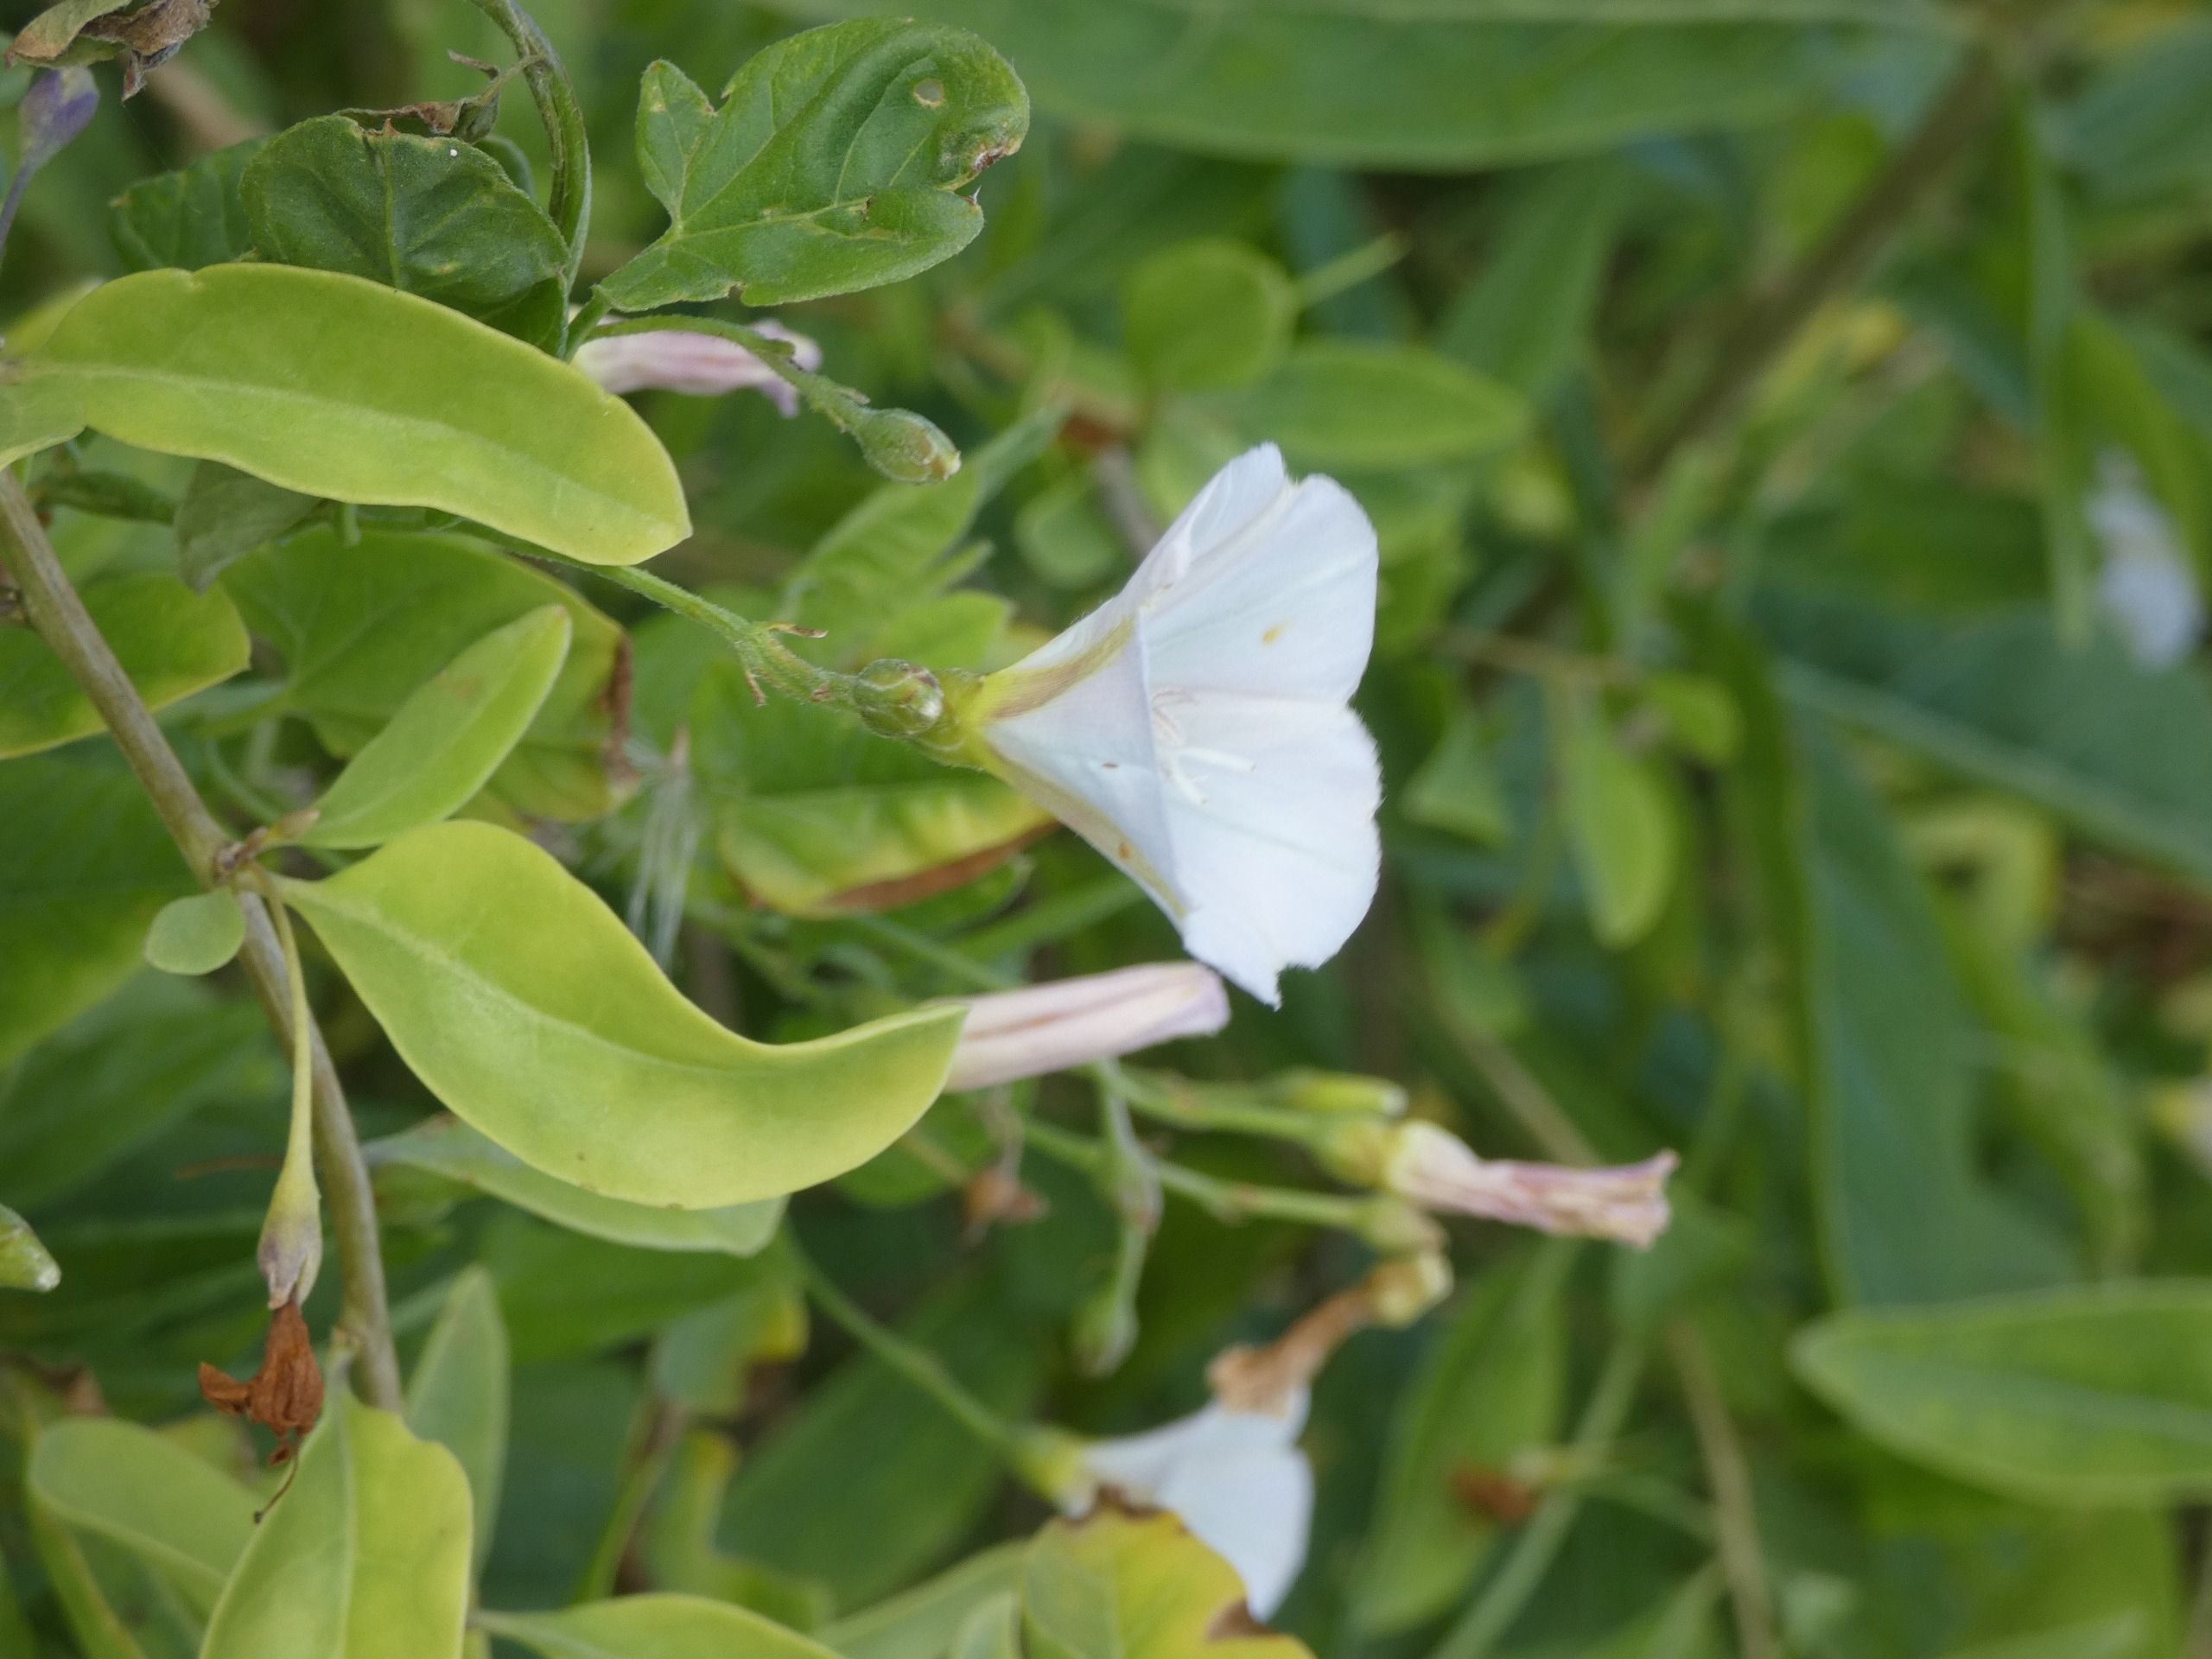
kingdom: Plantae
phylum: Tracheophyta
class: Magnoliopsida
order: Solanales
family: Convolvulaceae
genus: Convolvulus
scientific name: Convolvulus arvensis
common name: Ager-snerle
